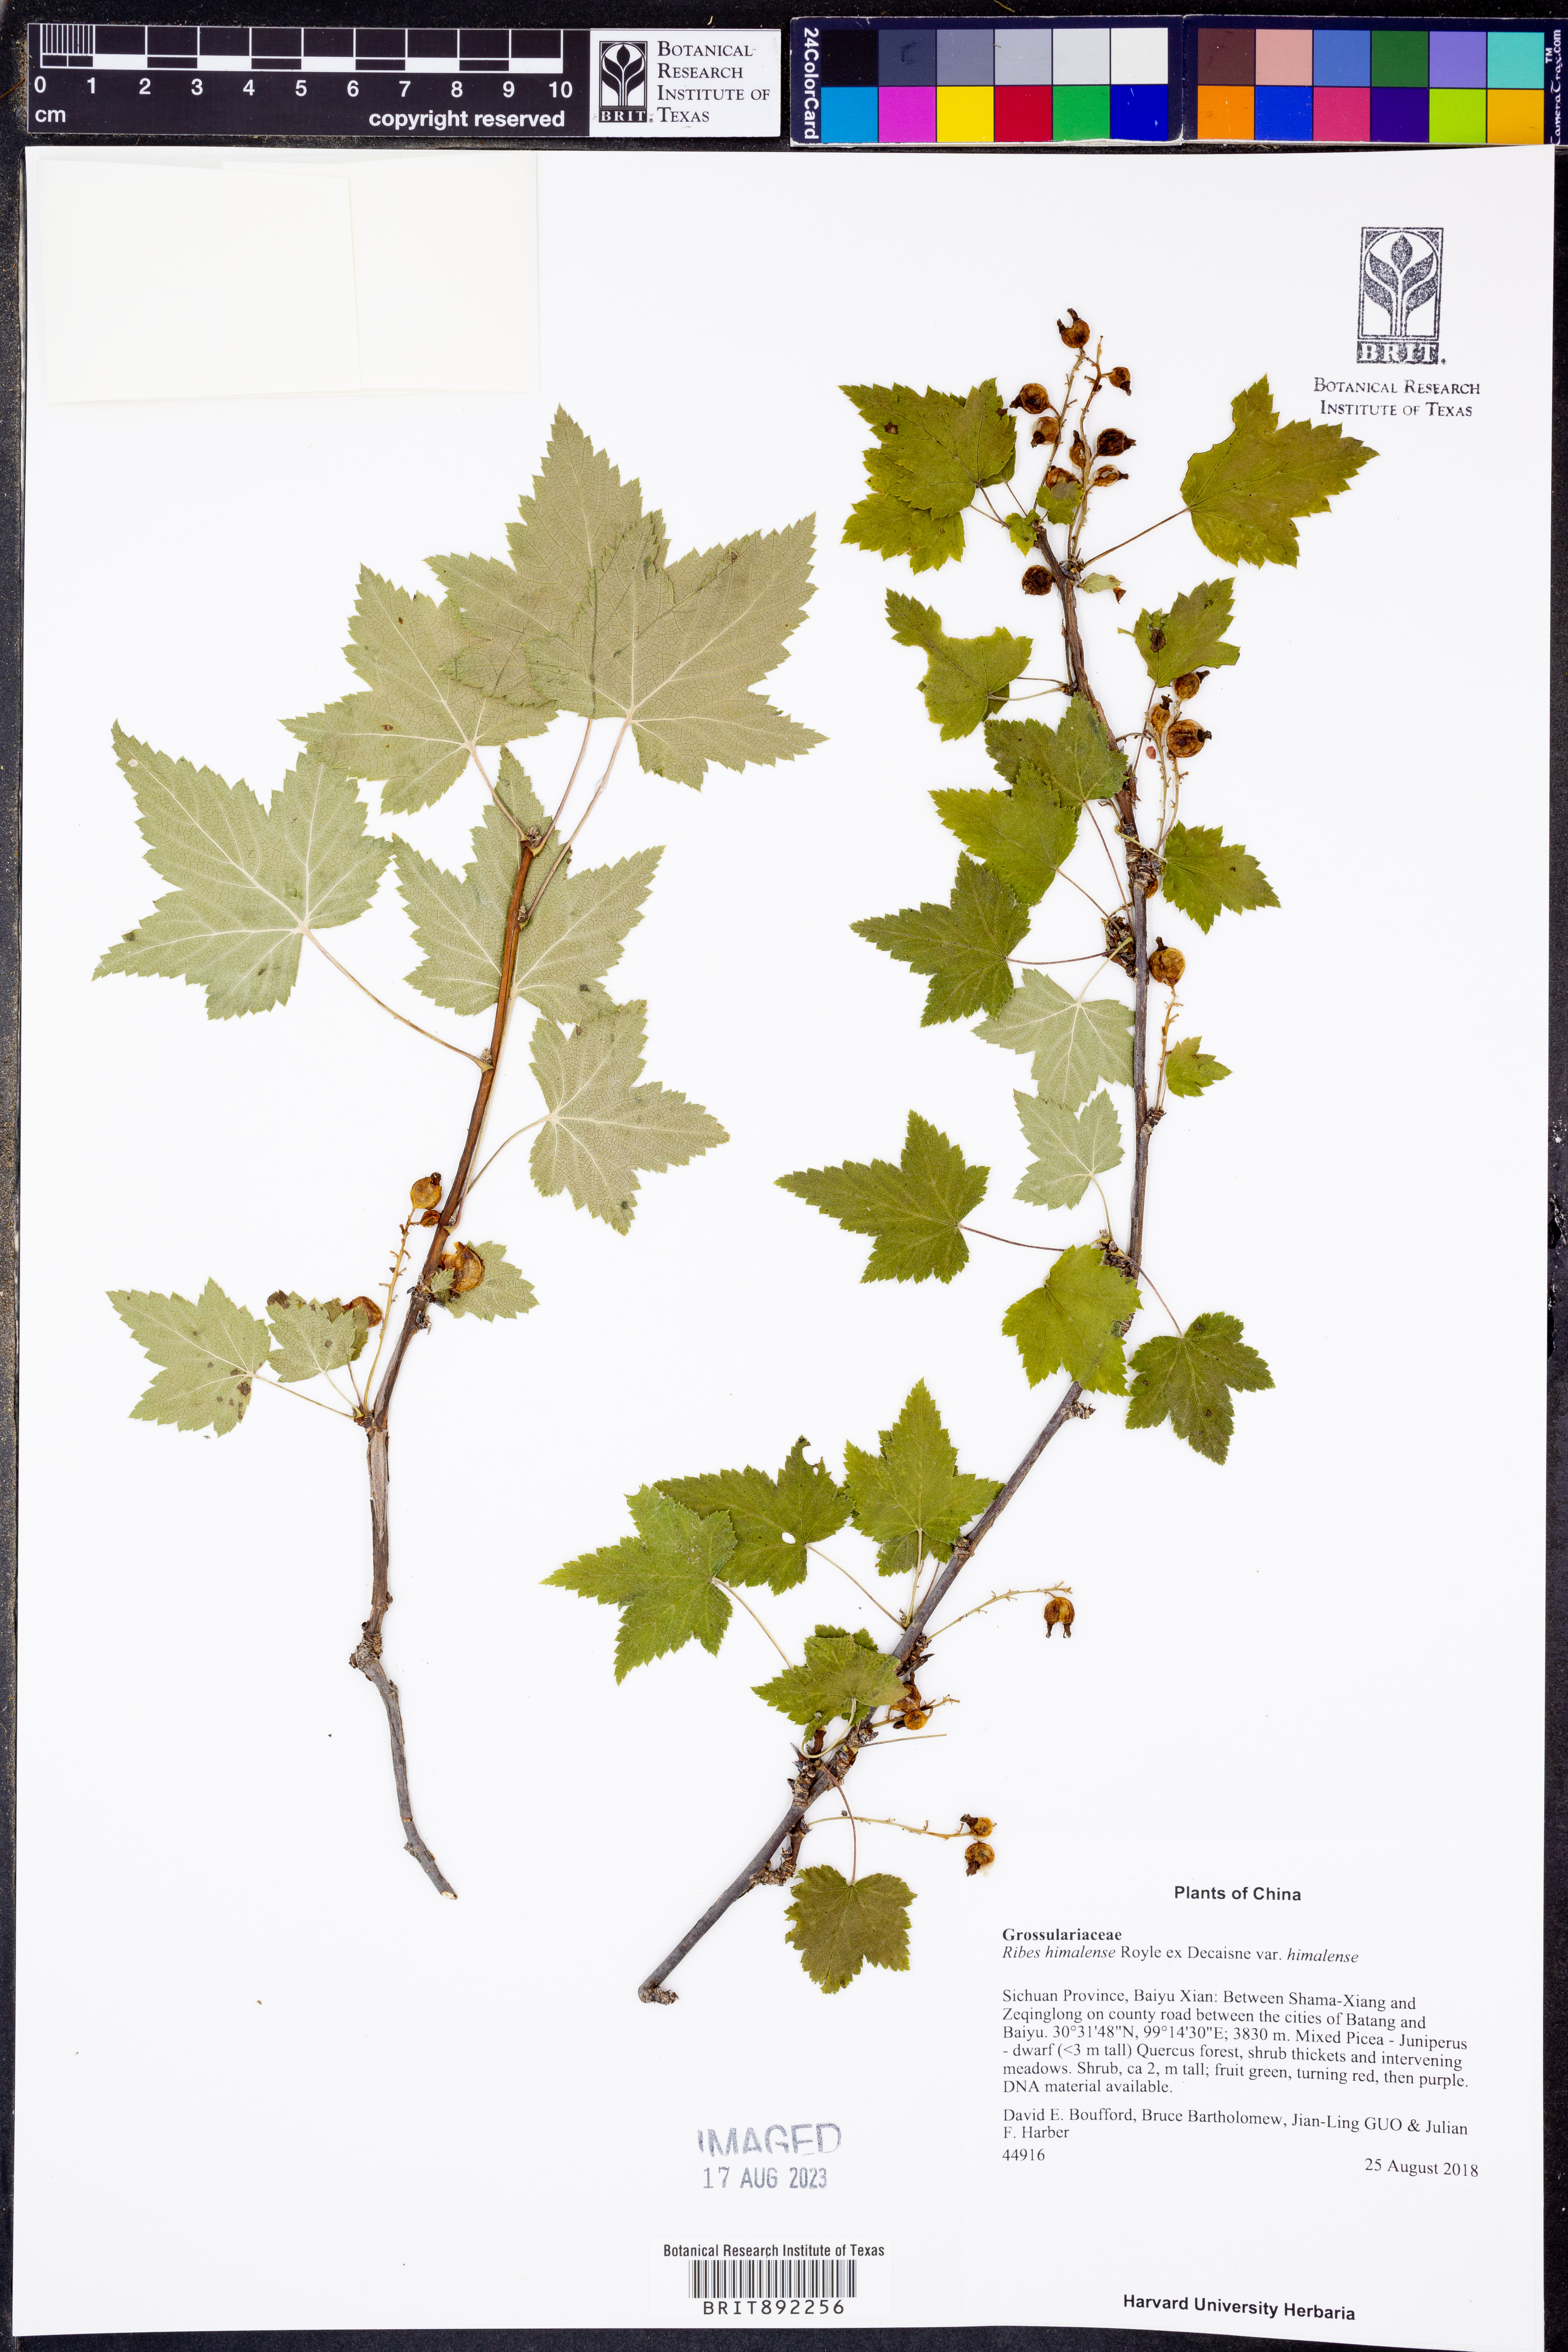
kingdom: Plantae
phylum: Tracheophyta
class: Magnoliopsida
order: Saxifragales
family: Grossulariaceae
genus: Ribes
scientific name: Ribes himalense
